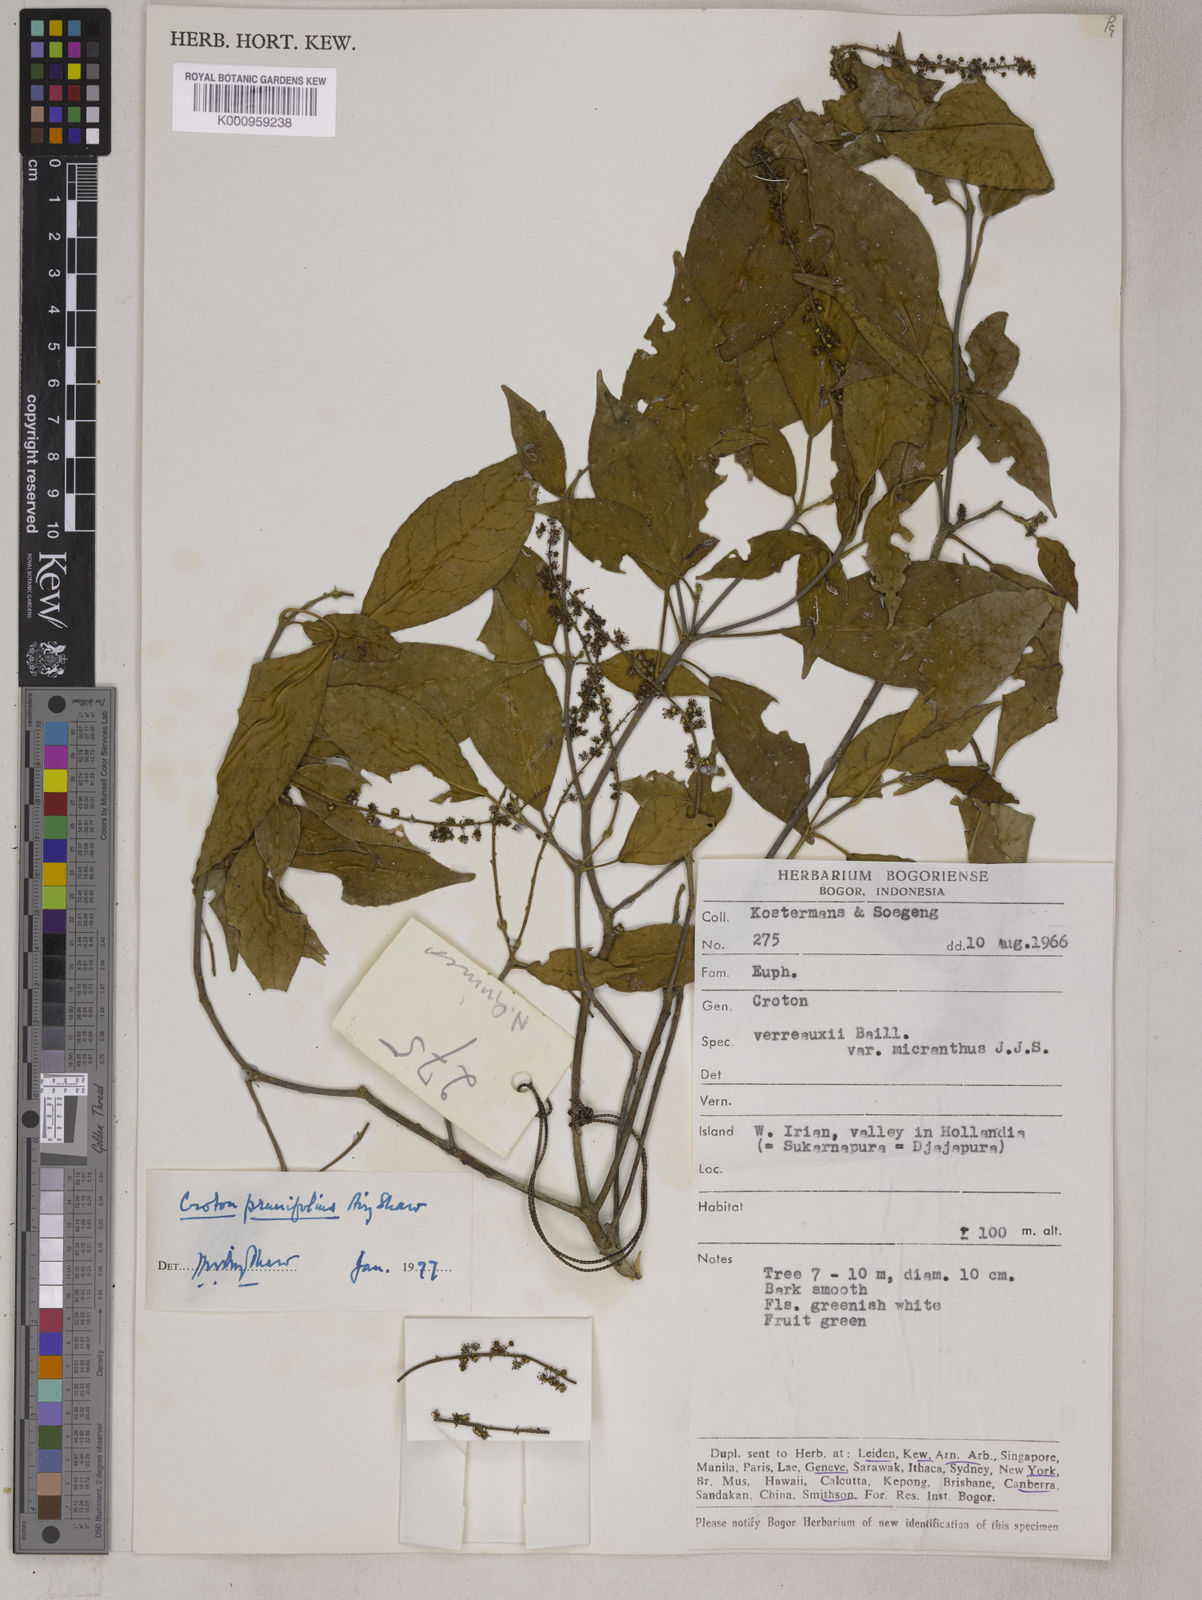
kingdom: Plantae
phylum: Tracheophyta
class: Magnoliopsida
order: Malpighiales
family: Euphorbiaceae
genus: Croton
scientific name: Croton coccymelophyllus
